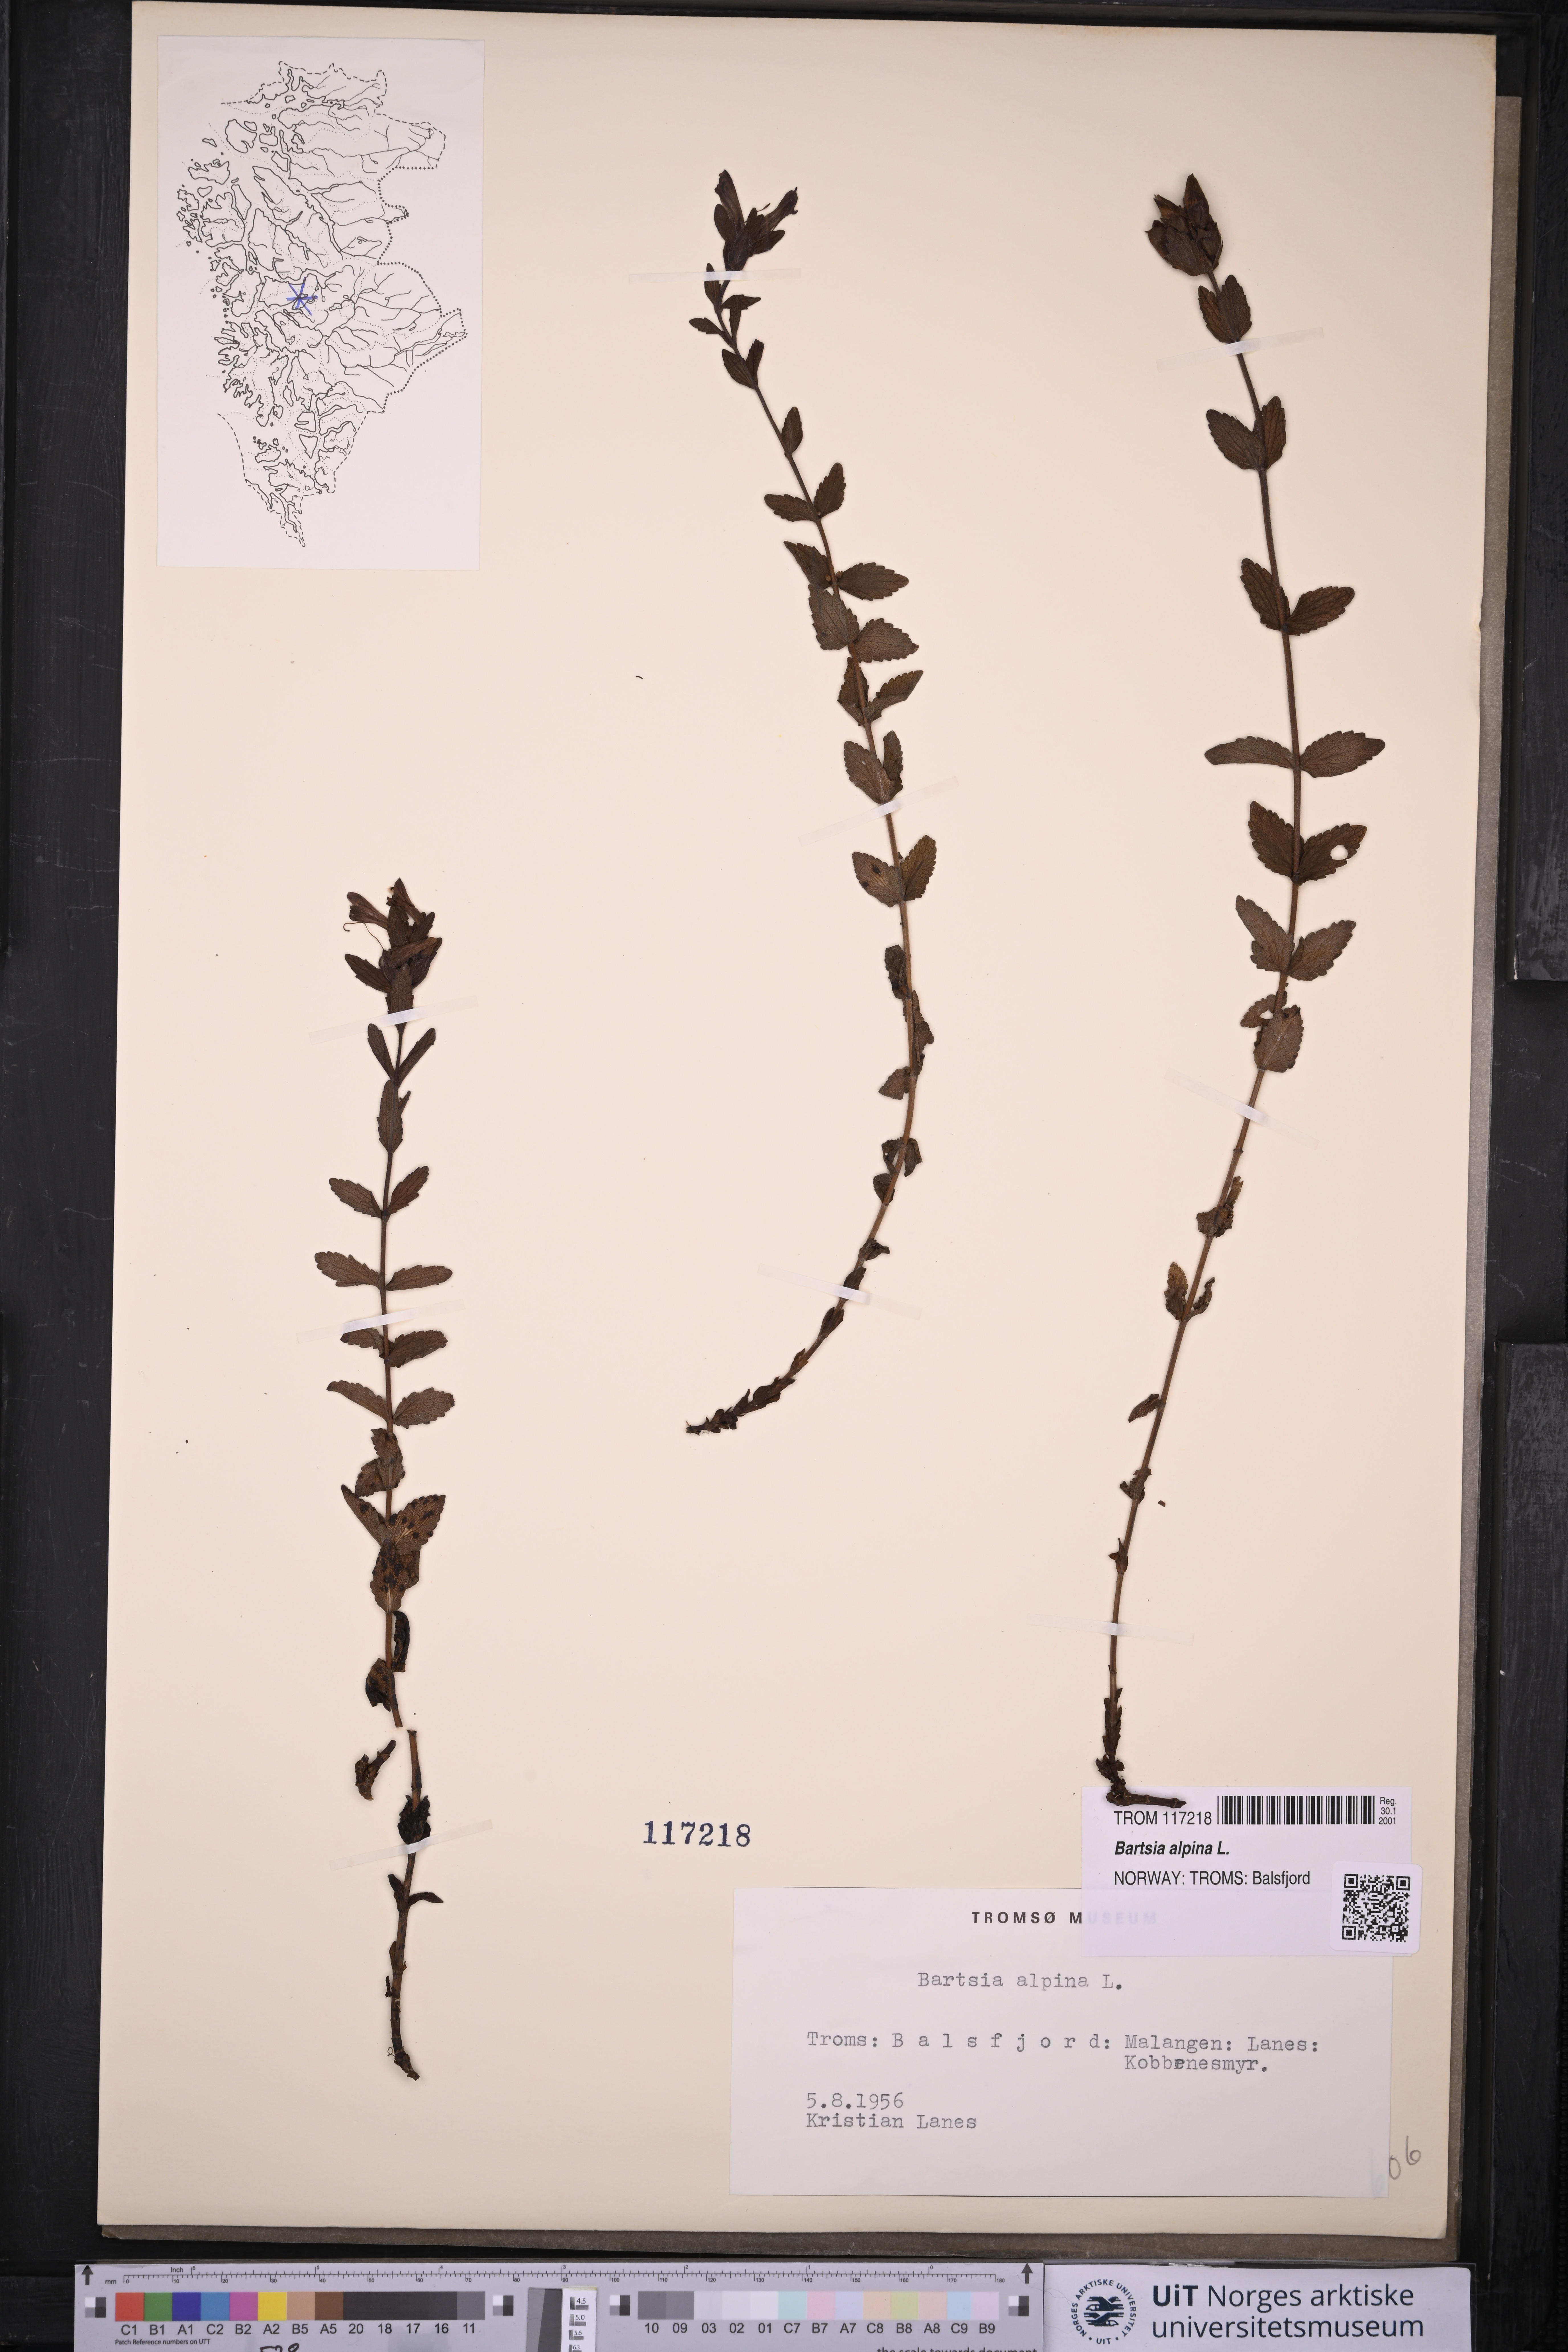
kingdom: Plantae
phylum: Tracheophyta
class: Magnoliopsida
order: Lamiales
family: Orobanchaceae
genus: Bartsia
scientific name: Bartsia alpina
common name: Alpine bartsia
